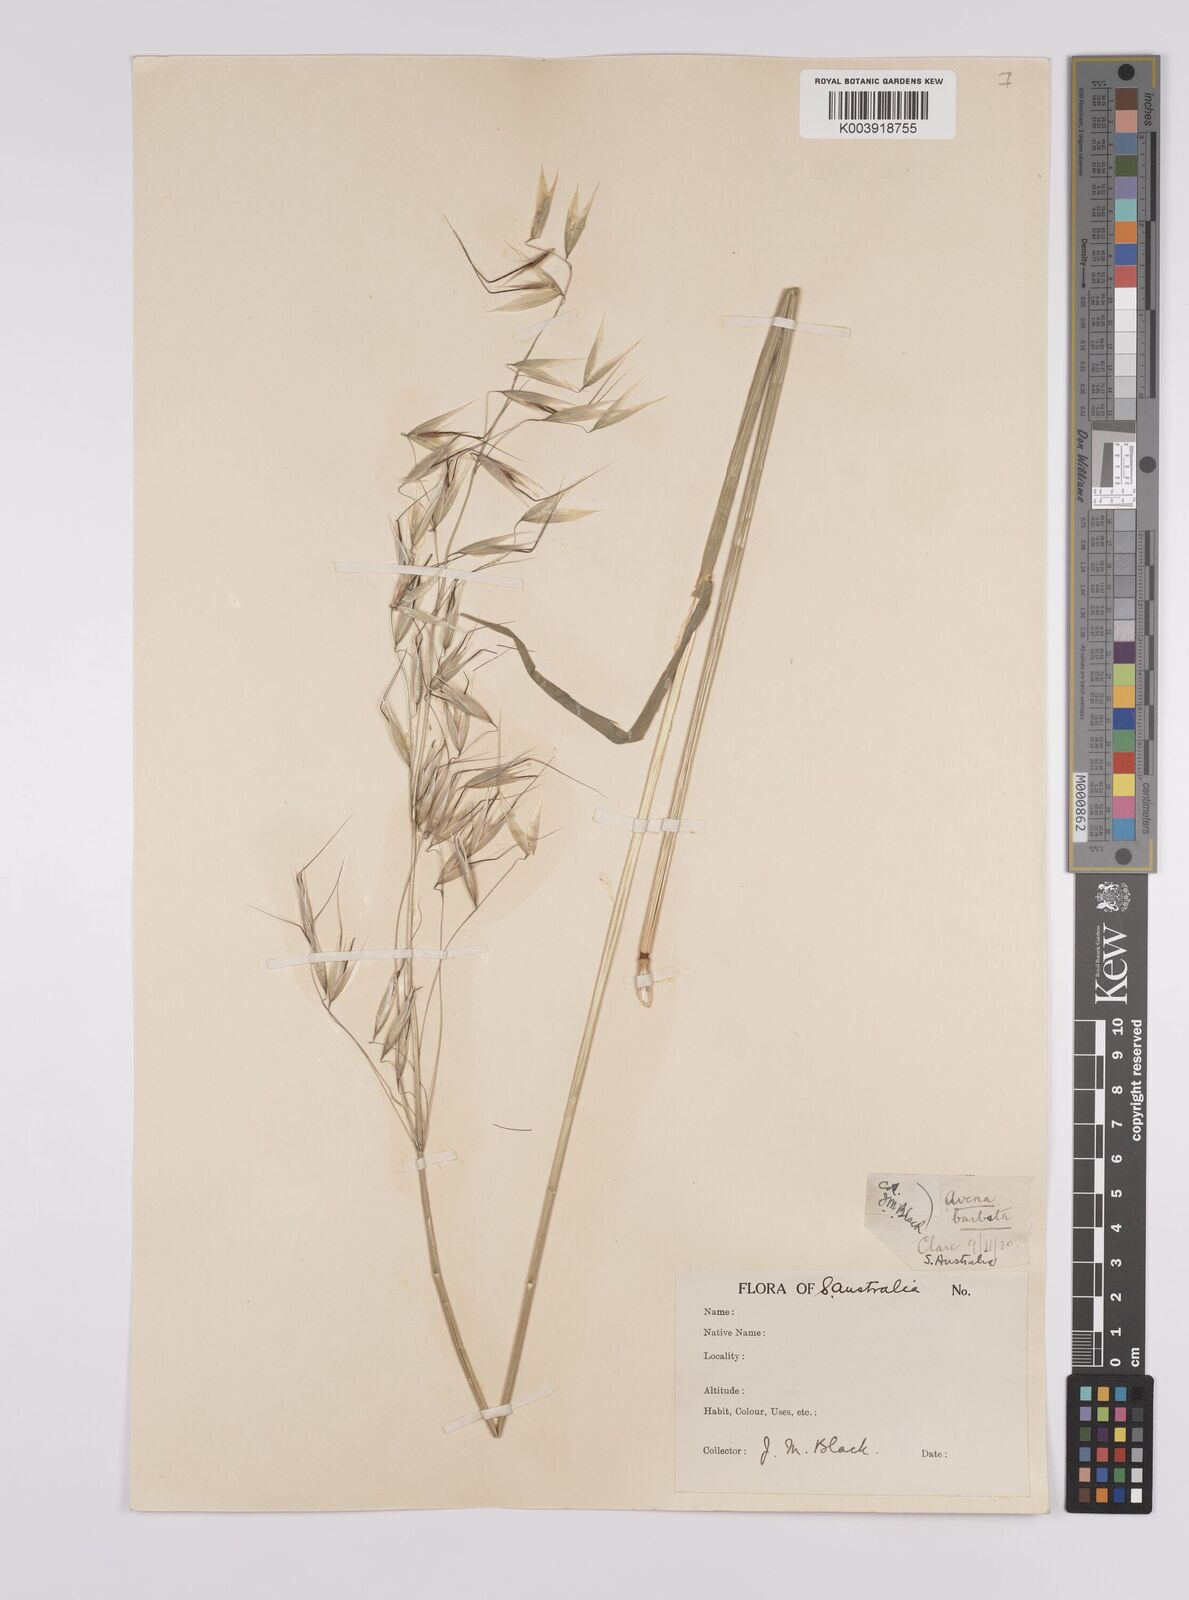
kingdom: Plantae
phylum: Tracheophyta
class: Liliopsida
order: Poales
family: Poaceae
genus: Avena
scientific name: Avena
